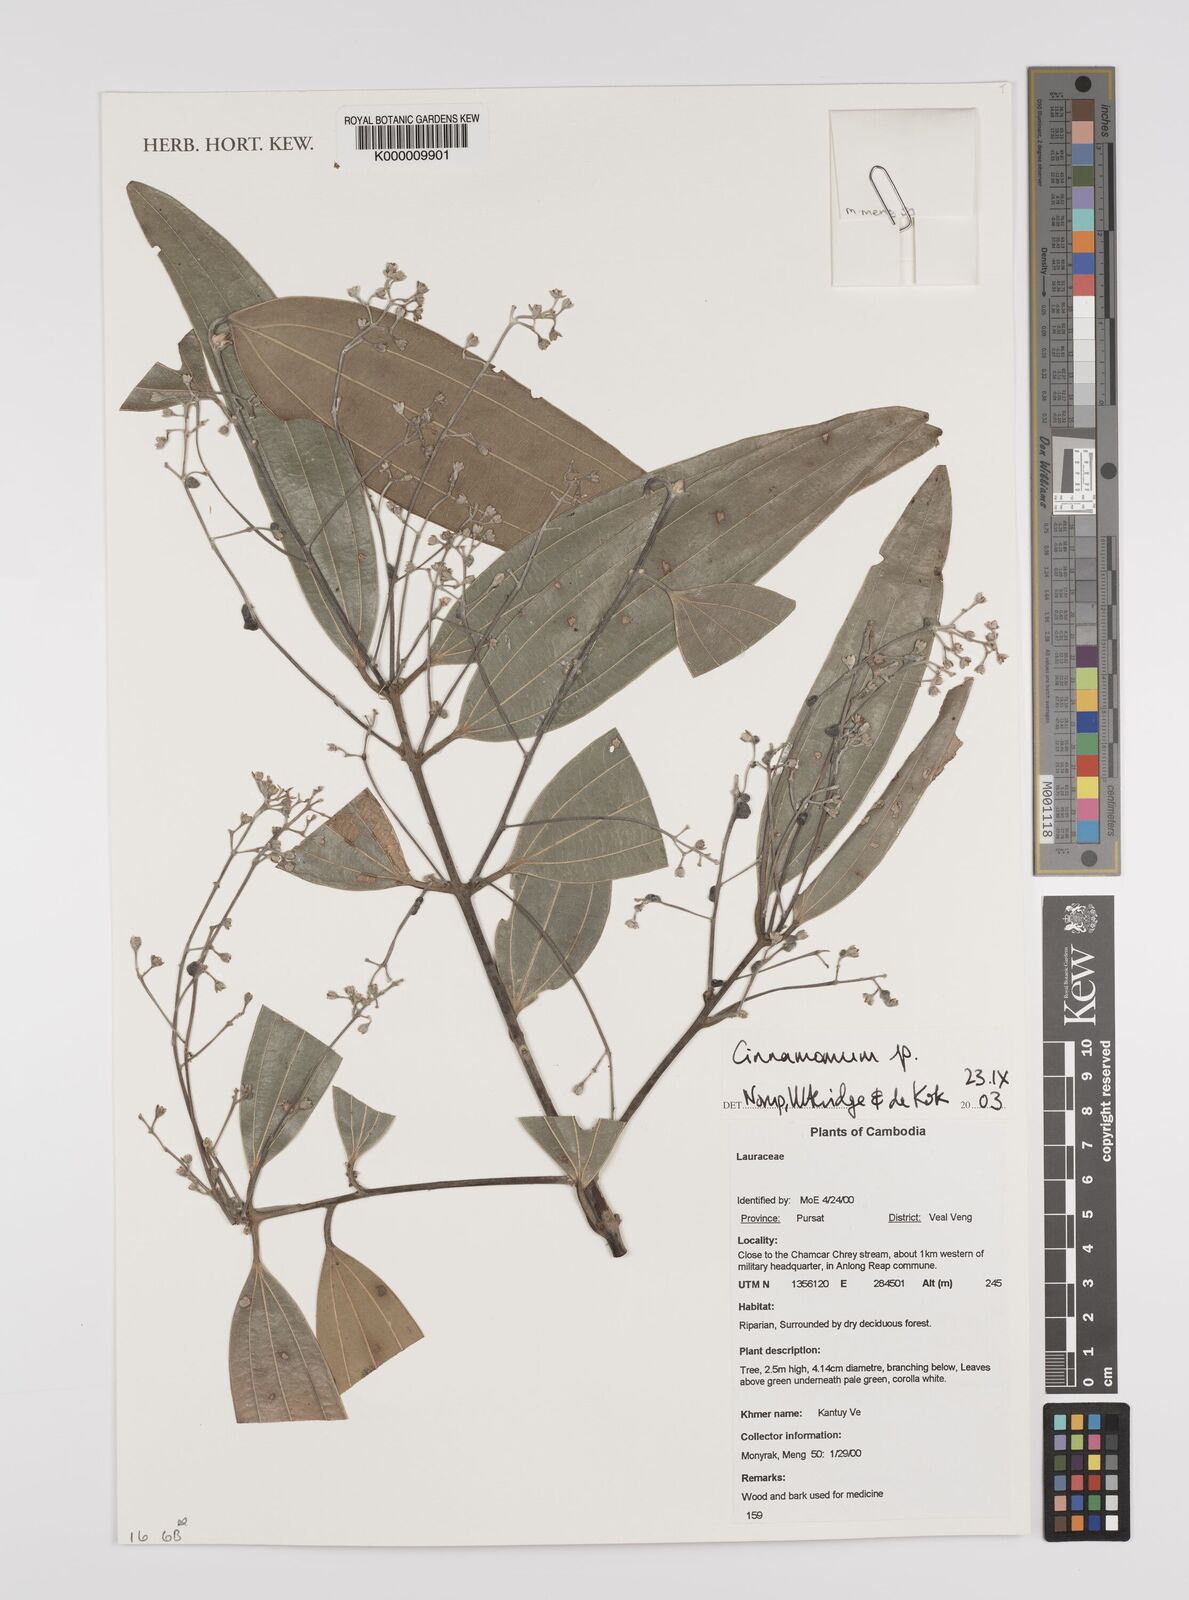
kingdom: Plantae
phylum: Tracheophyta
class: Magnoliopsida
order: Laurales
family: Lauraceae
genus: Cinnamomum
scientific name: Cinnamomum
